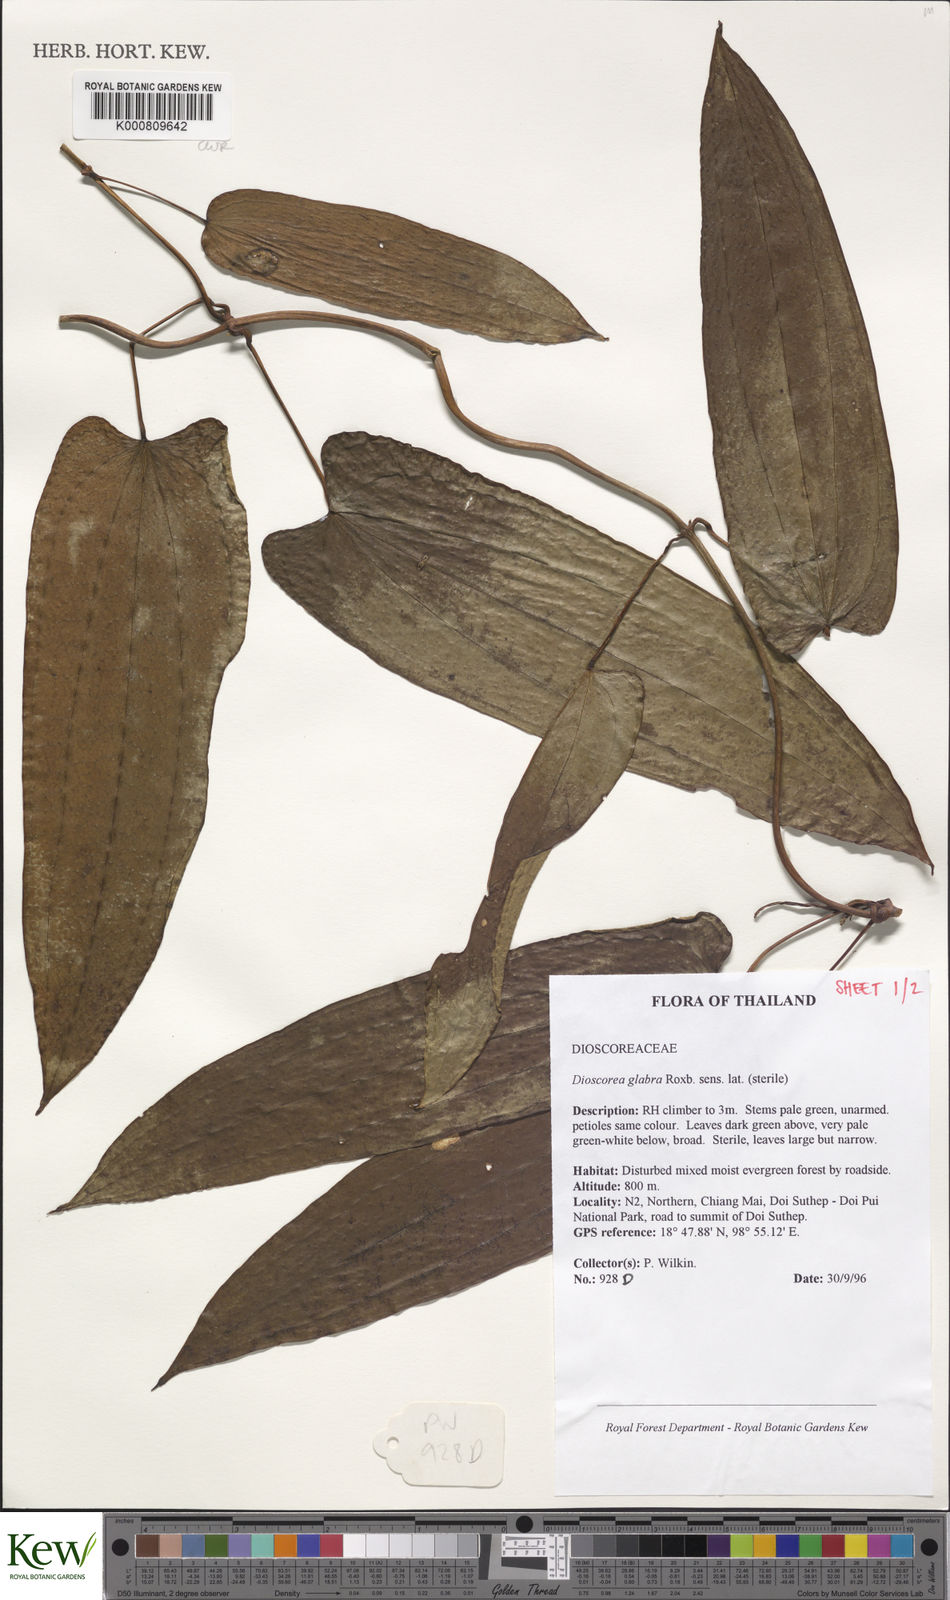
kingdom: Plantae
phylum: Tracheophyta
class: Liliopsida
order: Dioscoreales
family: Dioscoreaceae
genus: Dioscorea
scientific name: Dioscorea glabra
